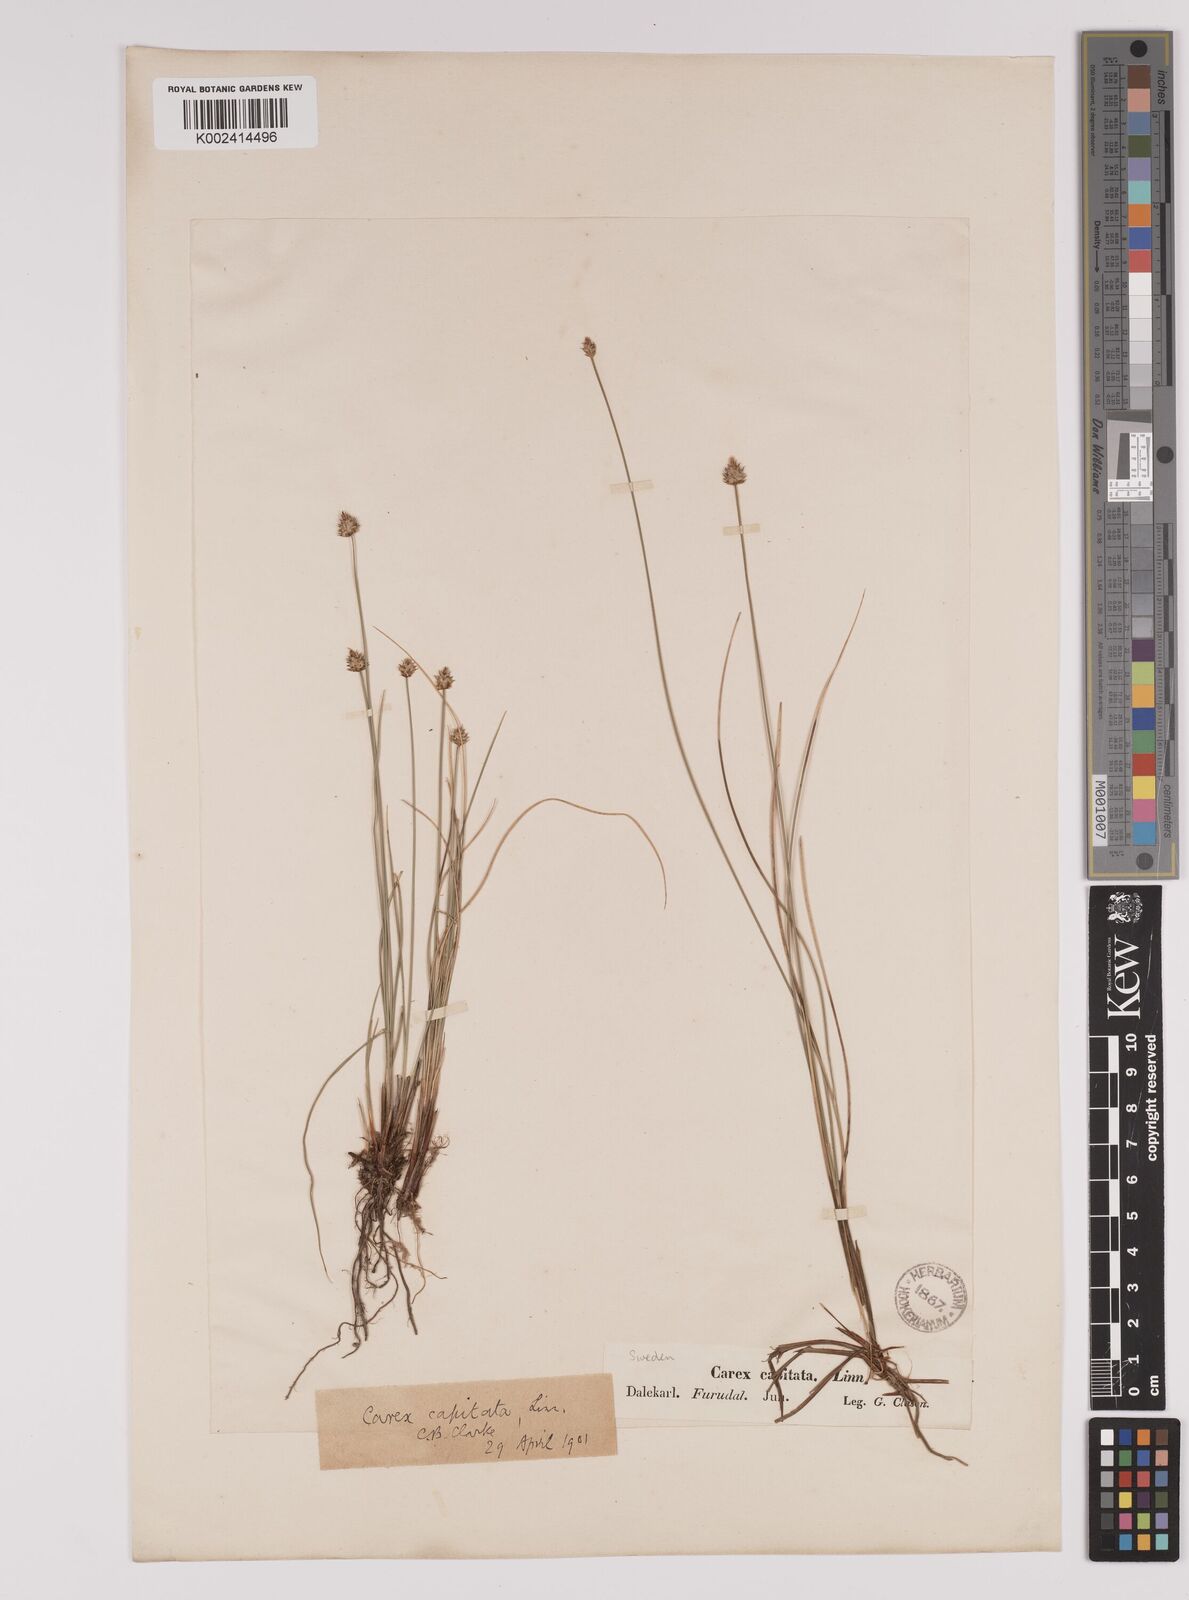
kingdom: Plantae
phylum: Tracheophyta
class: Liliopsida
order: Poales
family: Cyperaceae
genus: Carex
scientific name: Carex capitata
